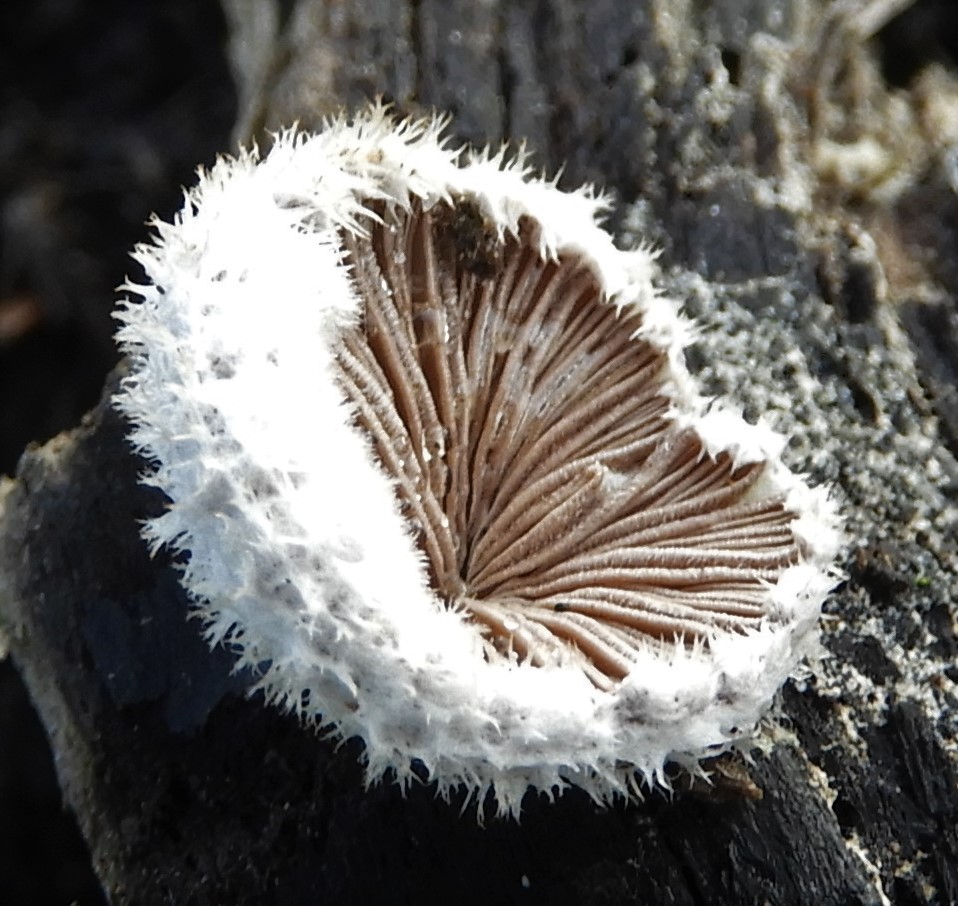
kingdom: Fungi
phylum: Basidiomycota
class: Agaricomycetes
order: Agaricales
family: Schizophyllaceae
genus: Schizophyllum
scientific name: Schizophyllum commune
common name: kløvblad
